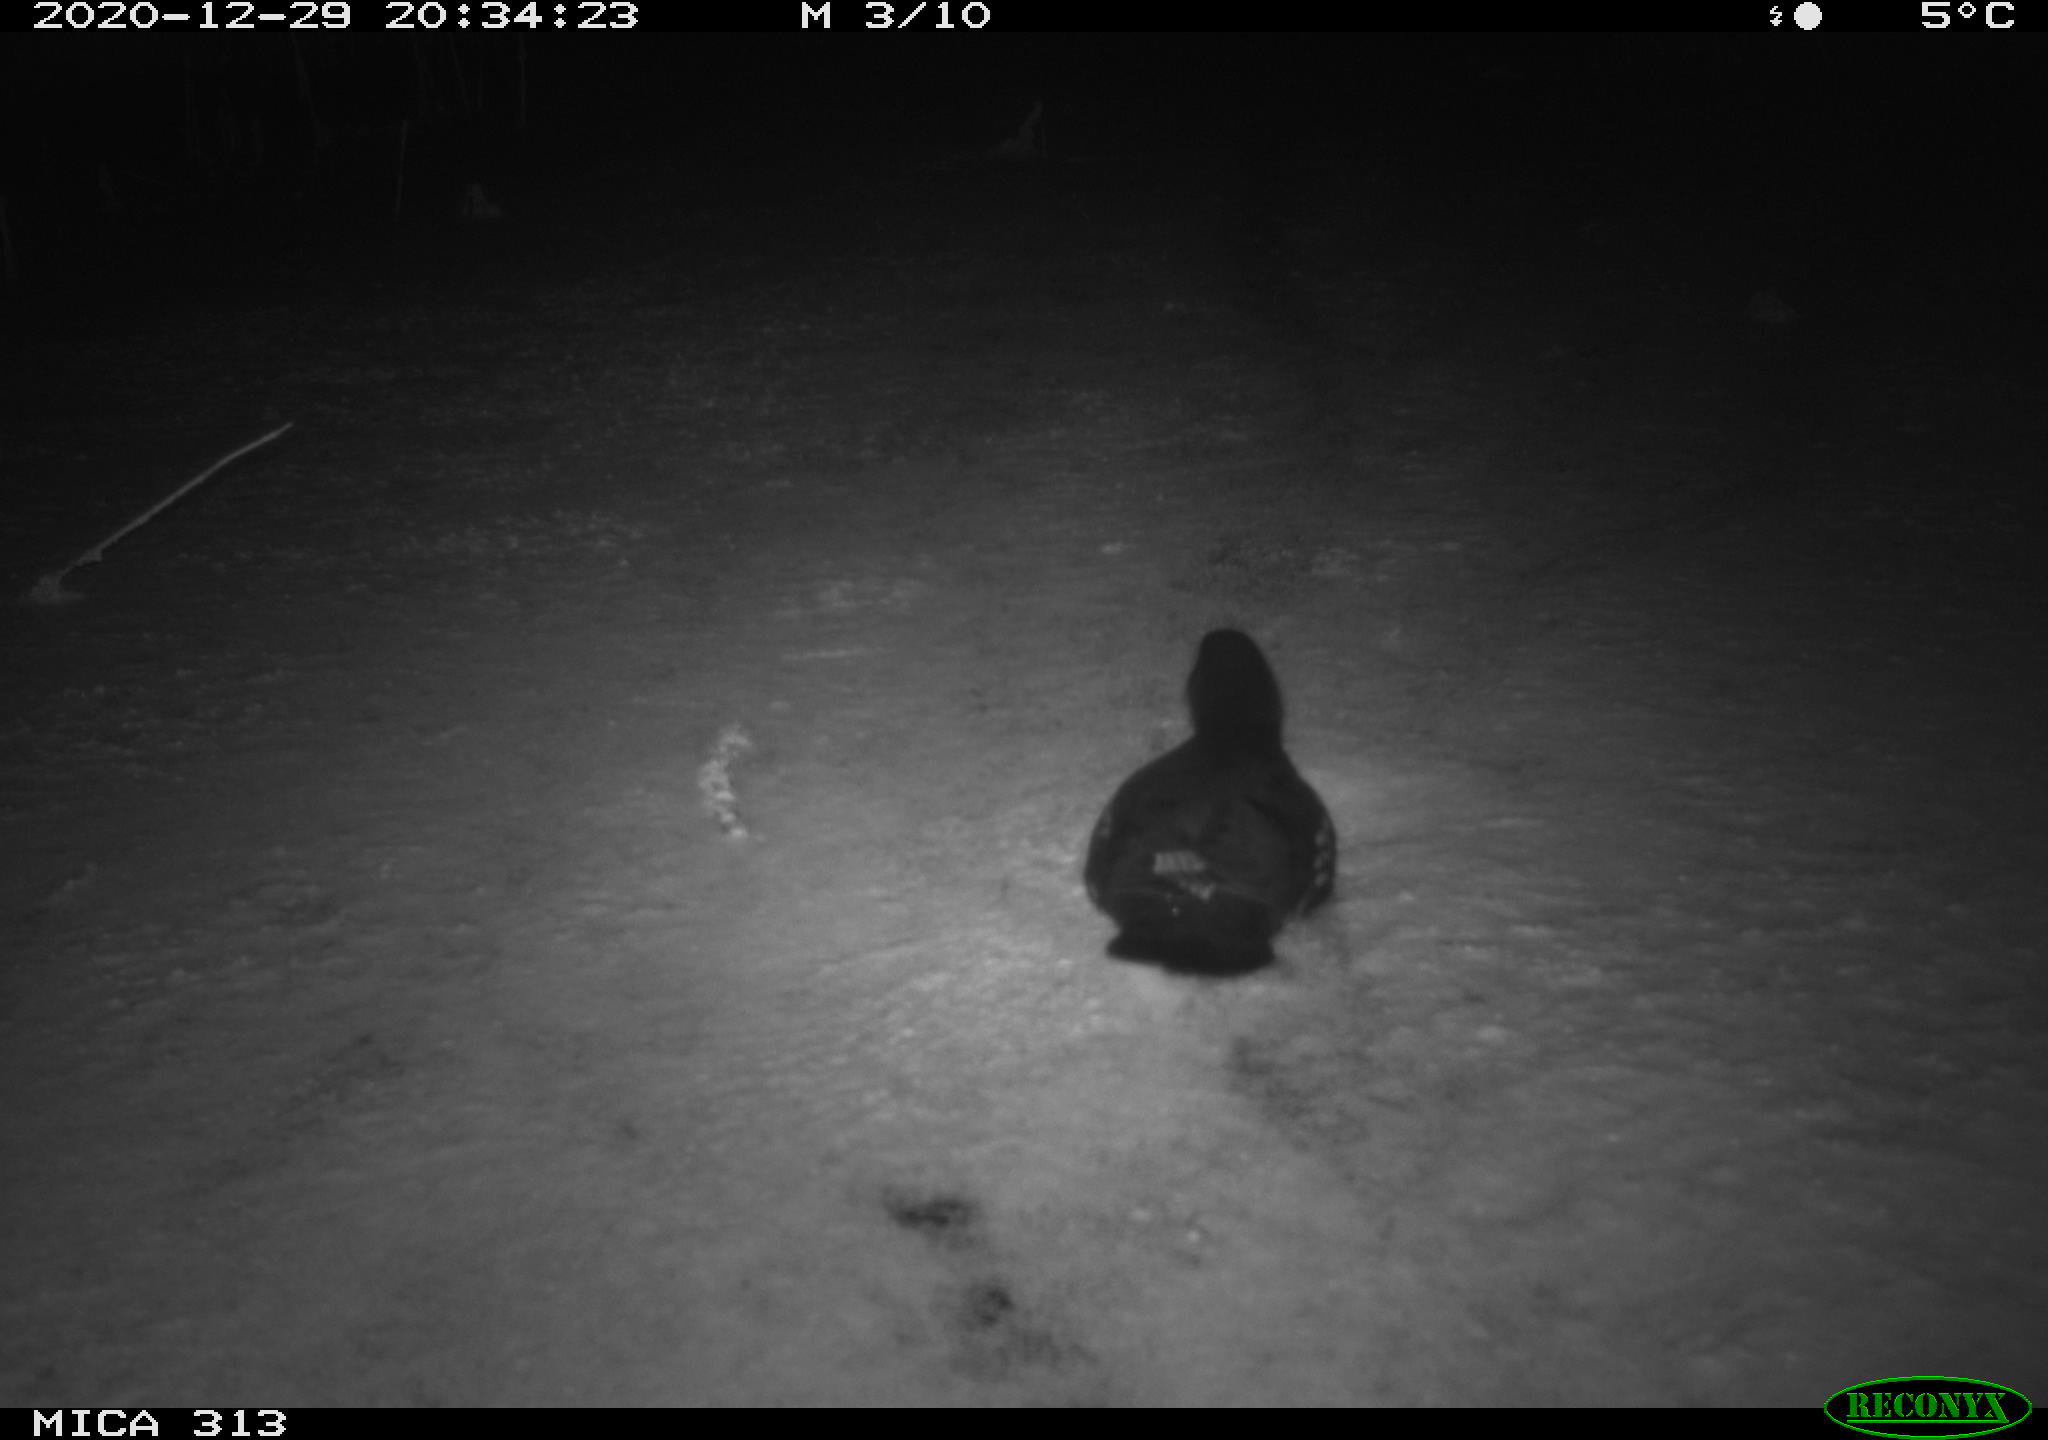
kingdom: Animalia
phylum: Chordata
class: Aves
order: Gruiformes
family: Rallidae
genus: Fulica
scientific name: Fulica atra
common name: Eurasian coot
